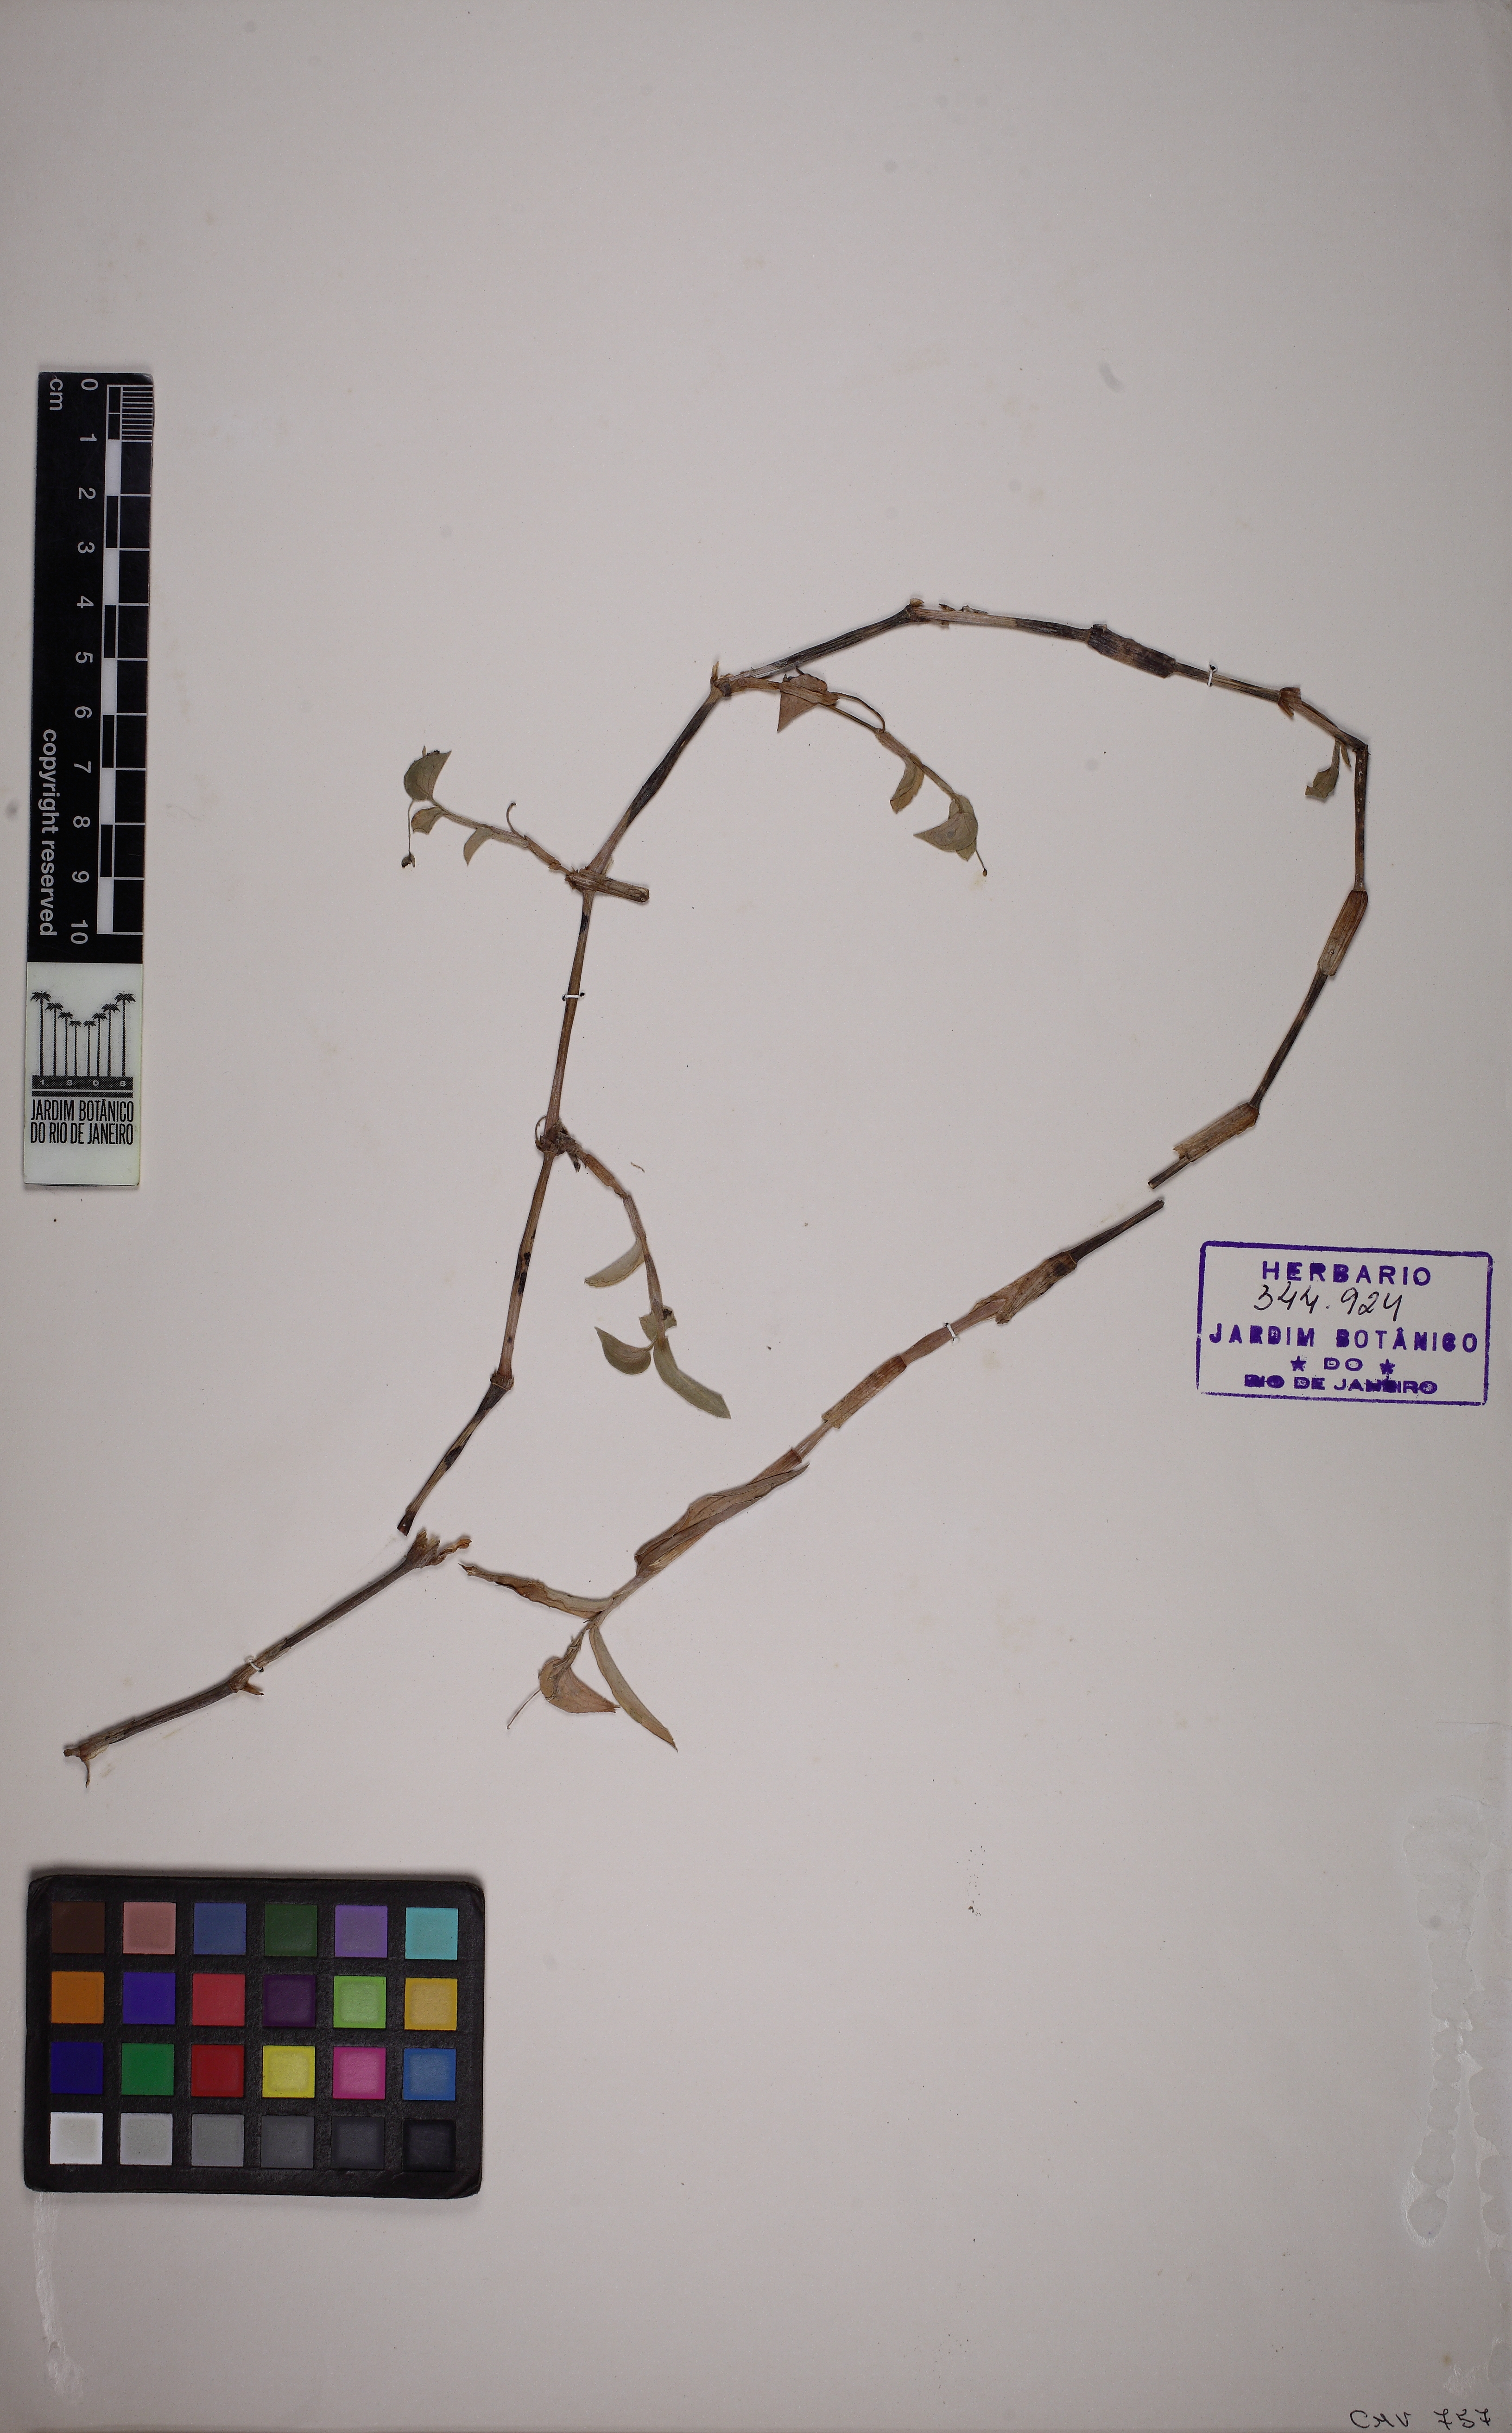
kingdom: Plantae
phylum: Tracheophyta
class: Liliopsida
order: Commelinales
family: Commelinaceae
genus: Commelina
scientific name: Commelina
